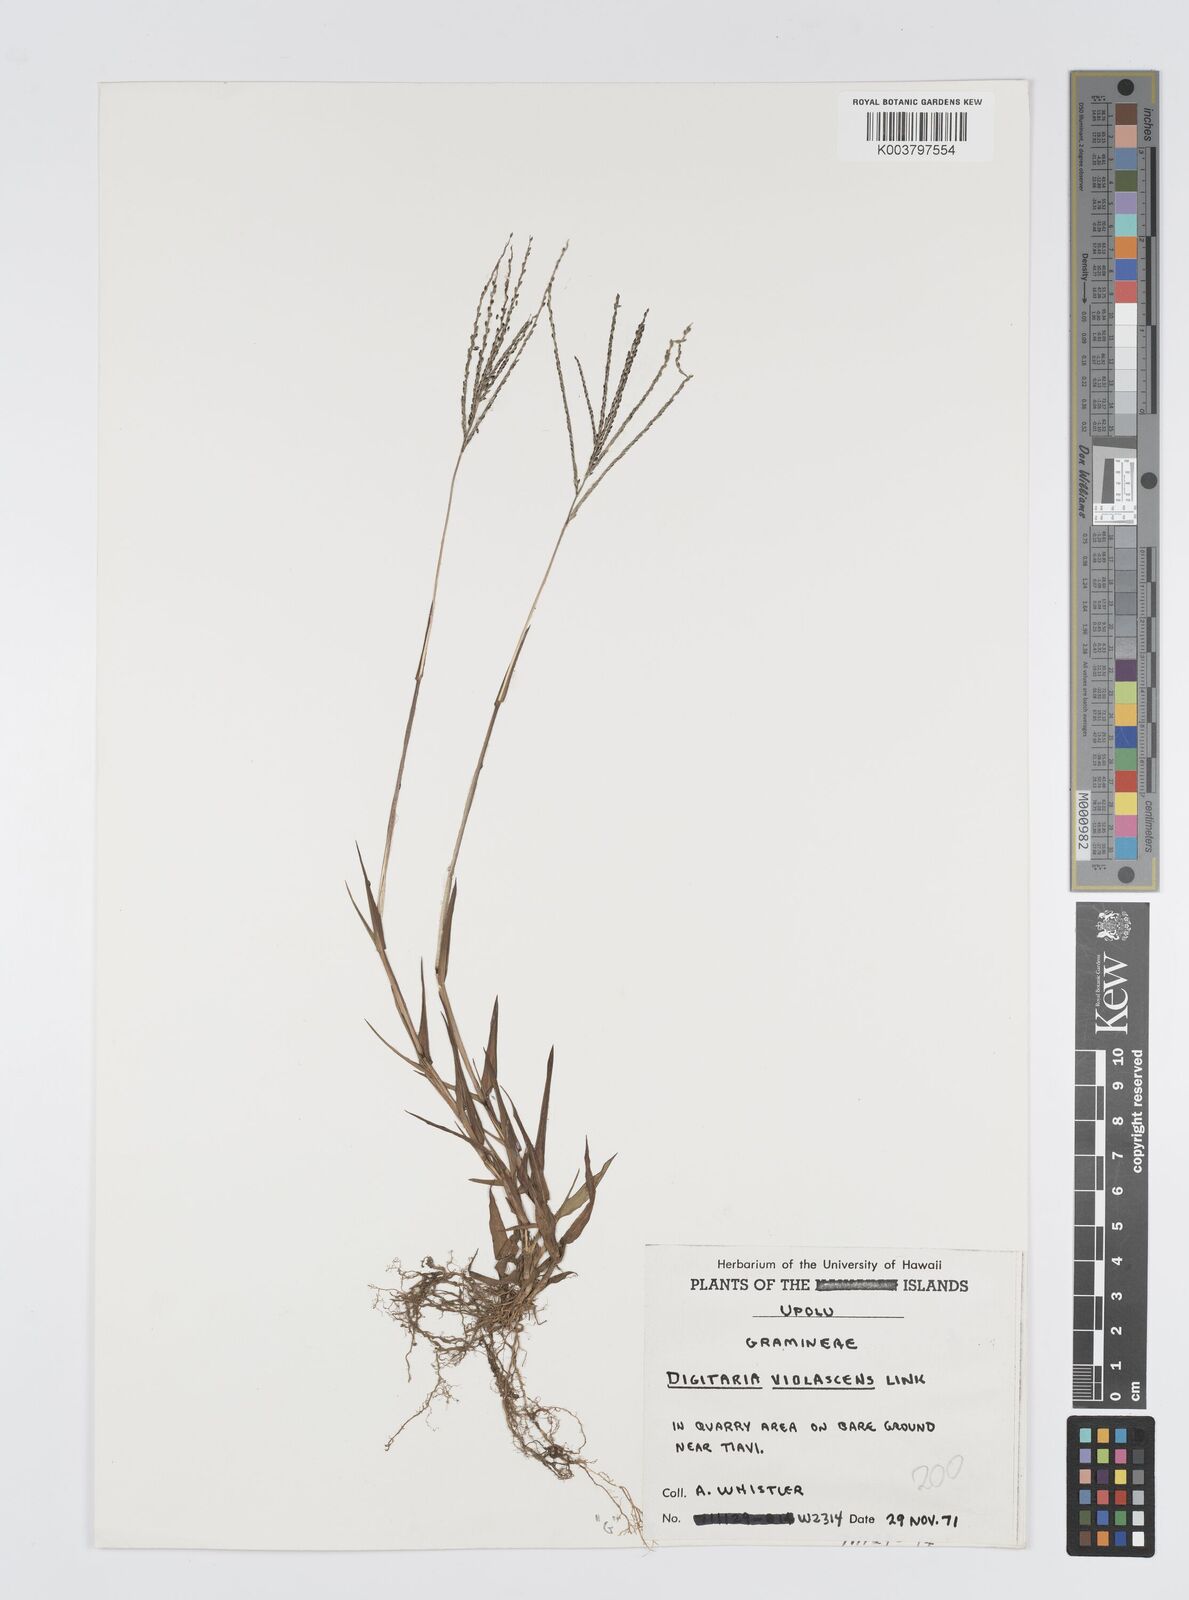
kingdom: Plantae
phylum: Tracheophyta
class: Liliopsida
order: Poales
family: Poaceae
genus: Digitaria
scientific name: Digitaria violascens
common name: Violet crabgrass
